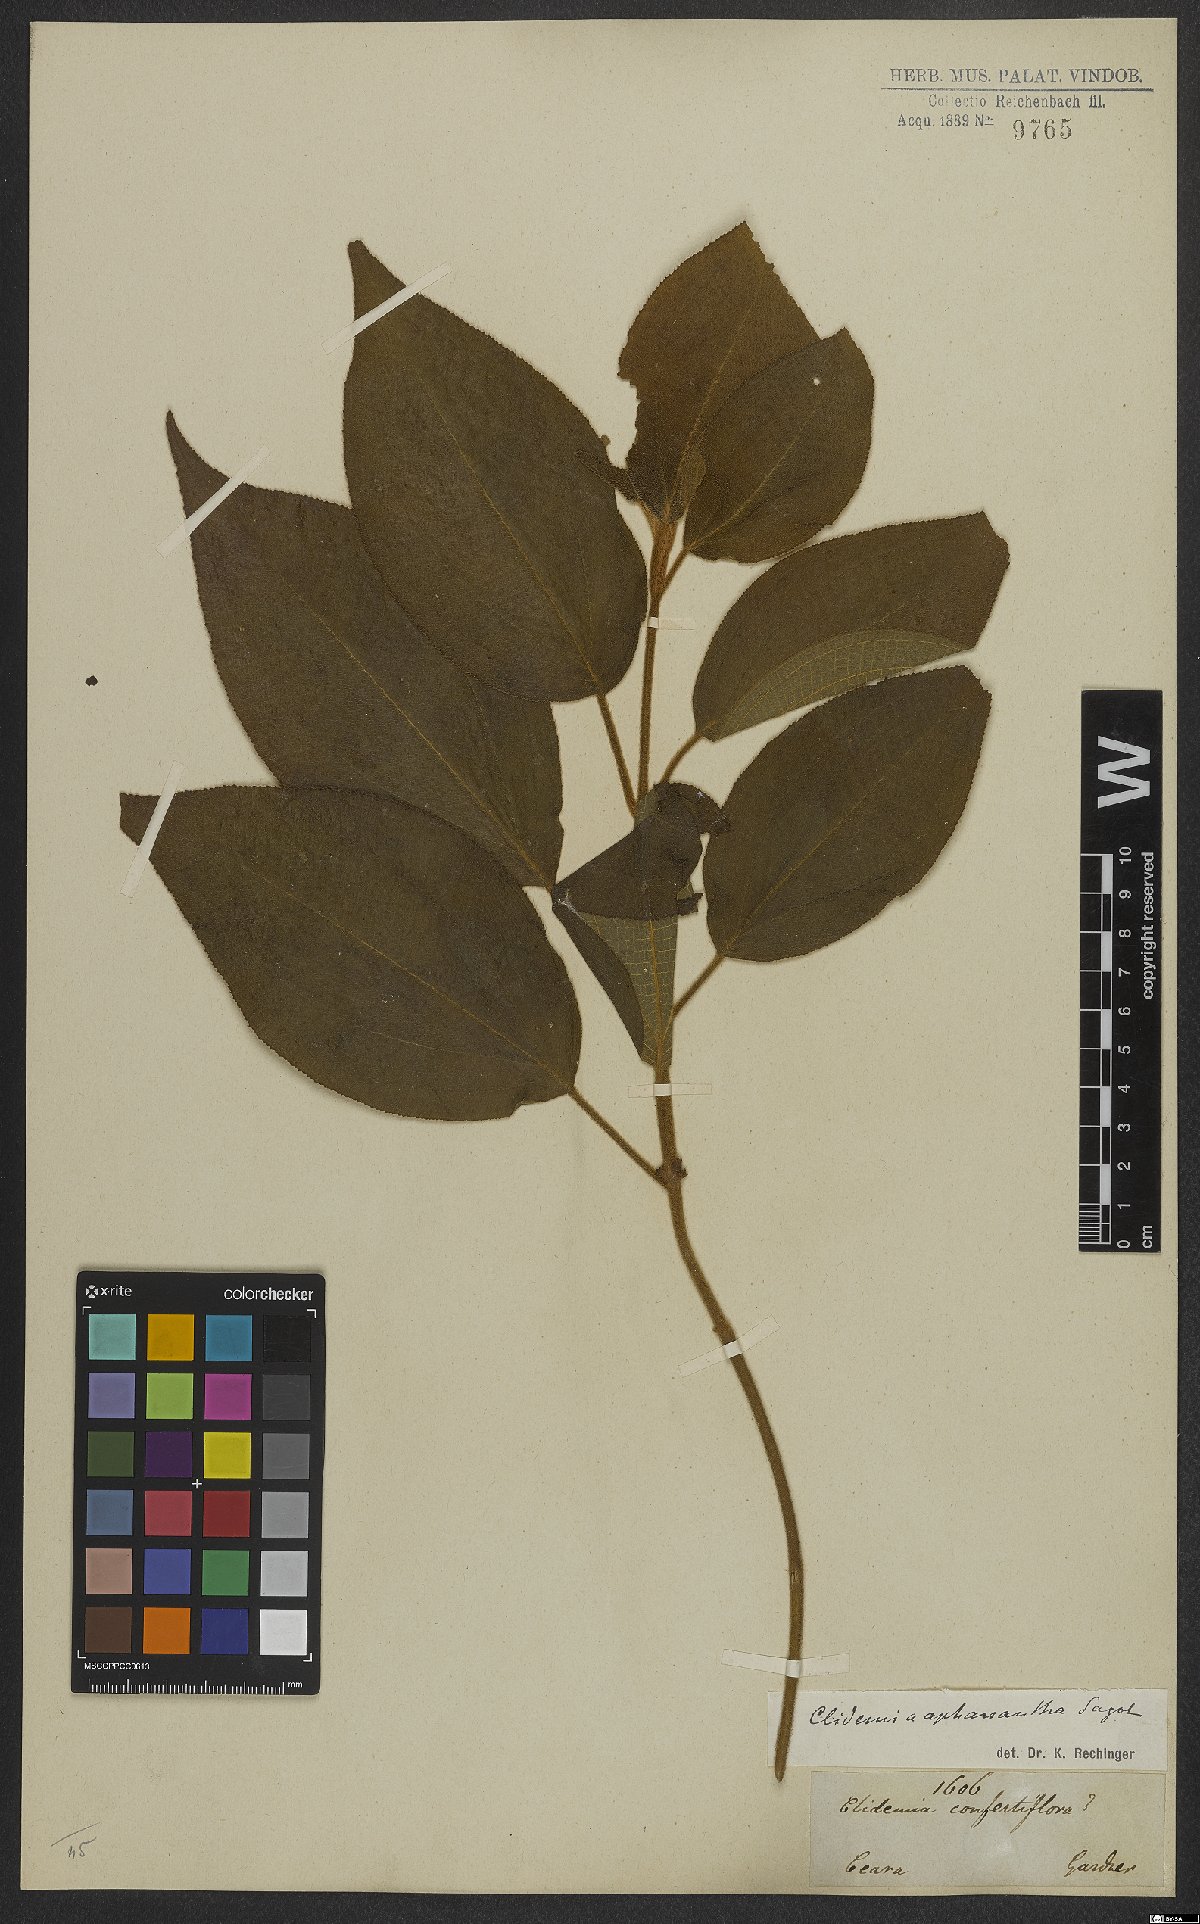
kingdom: Plantae
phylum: Tracheophyta
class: Magnoliopsida
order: Myrtales
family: Melastomataceae
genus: Miconia
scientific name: Miconia aphanantha
